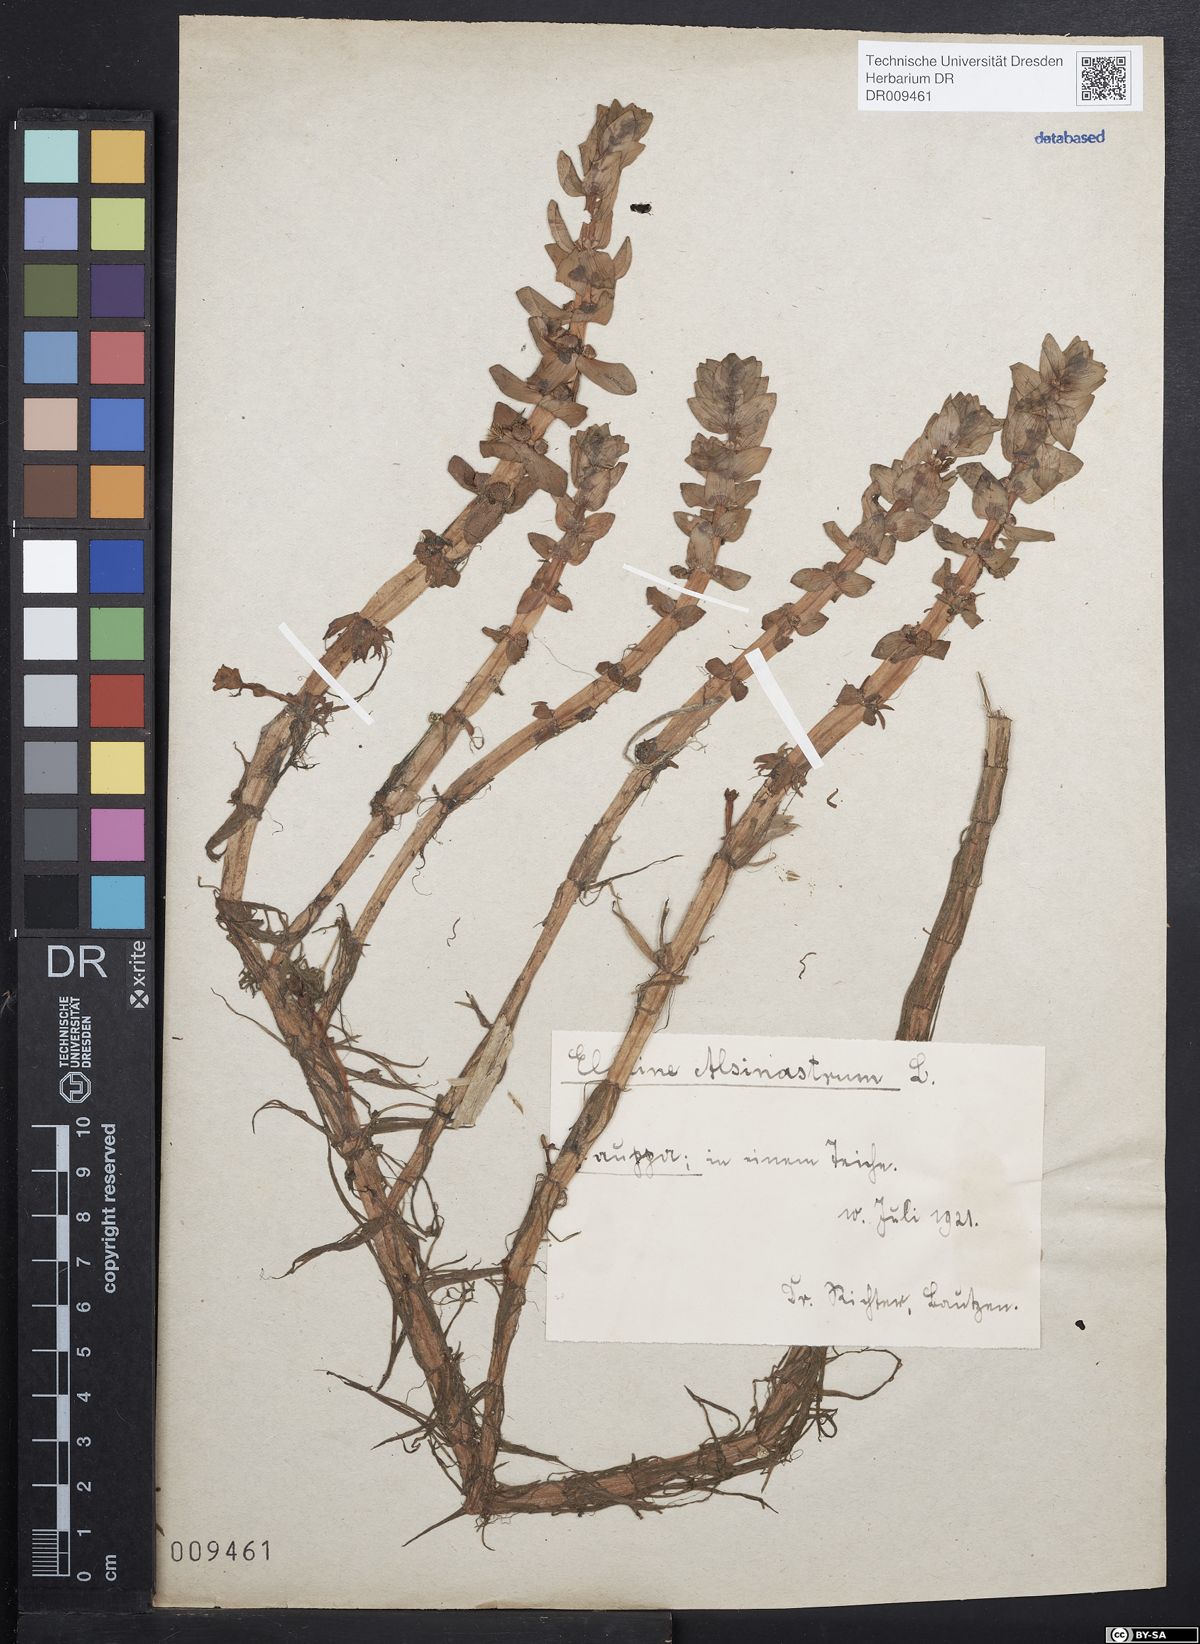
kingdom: Plantae
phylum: Tracheophyta
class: Magnoliopsida
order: Malpighiales
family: Elatinaceae
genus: Elatine
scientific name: Elatine alsinastrum
